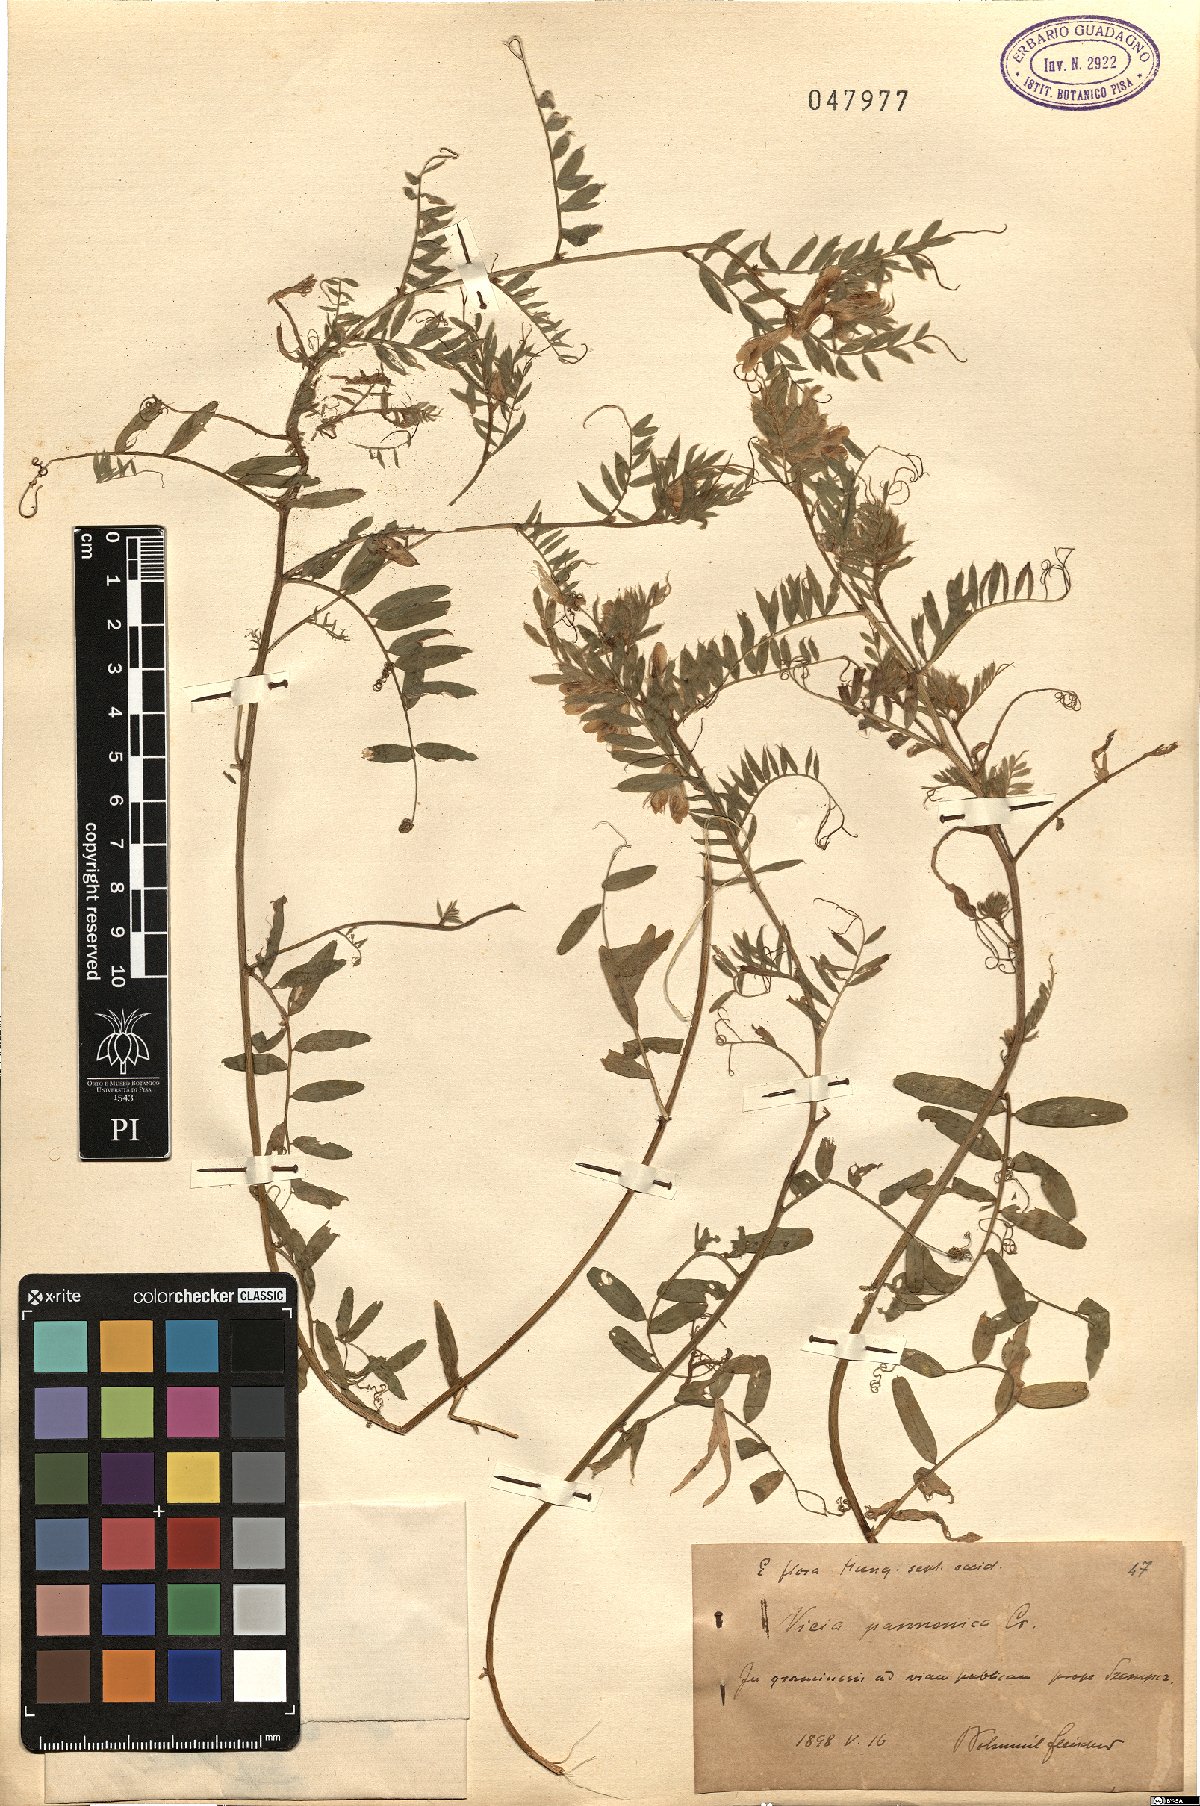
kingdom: Plantae
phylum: Tracheophyta
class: Magnoliopsida
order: Fabales
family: Fabaceae
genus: Vicia
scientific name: Vicia pannonica
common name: Hungarian vetch
